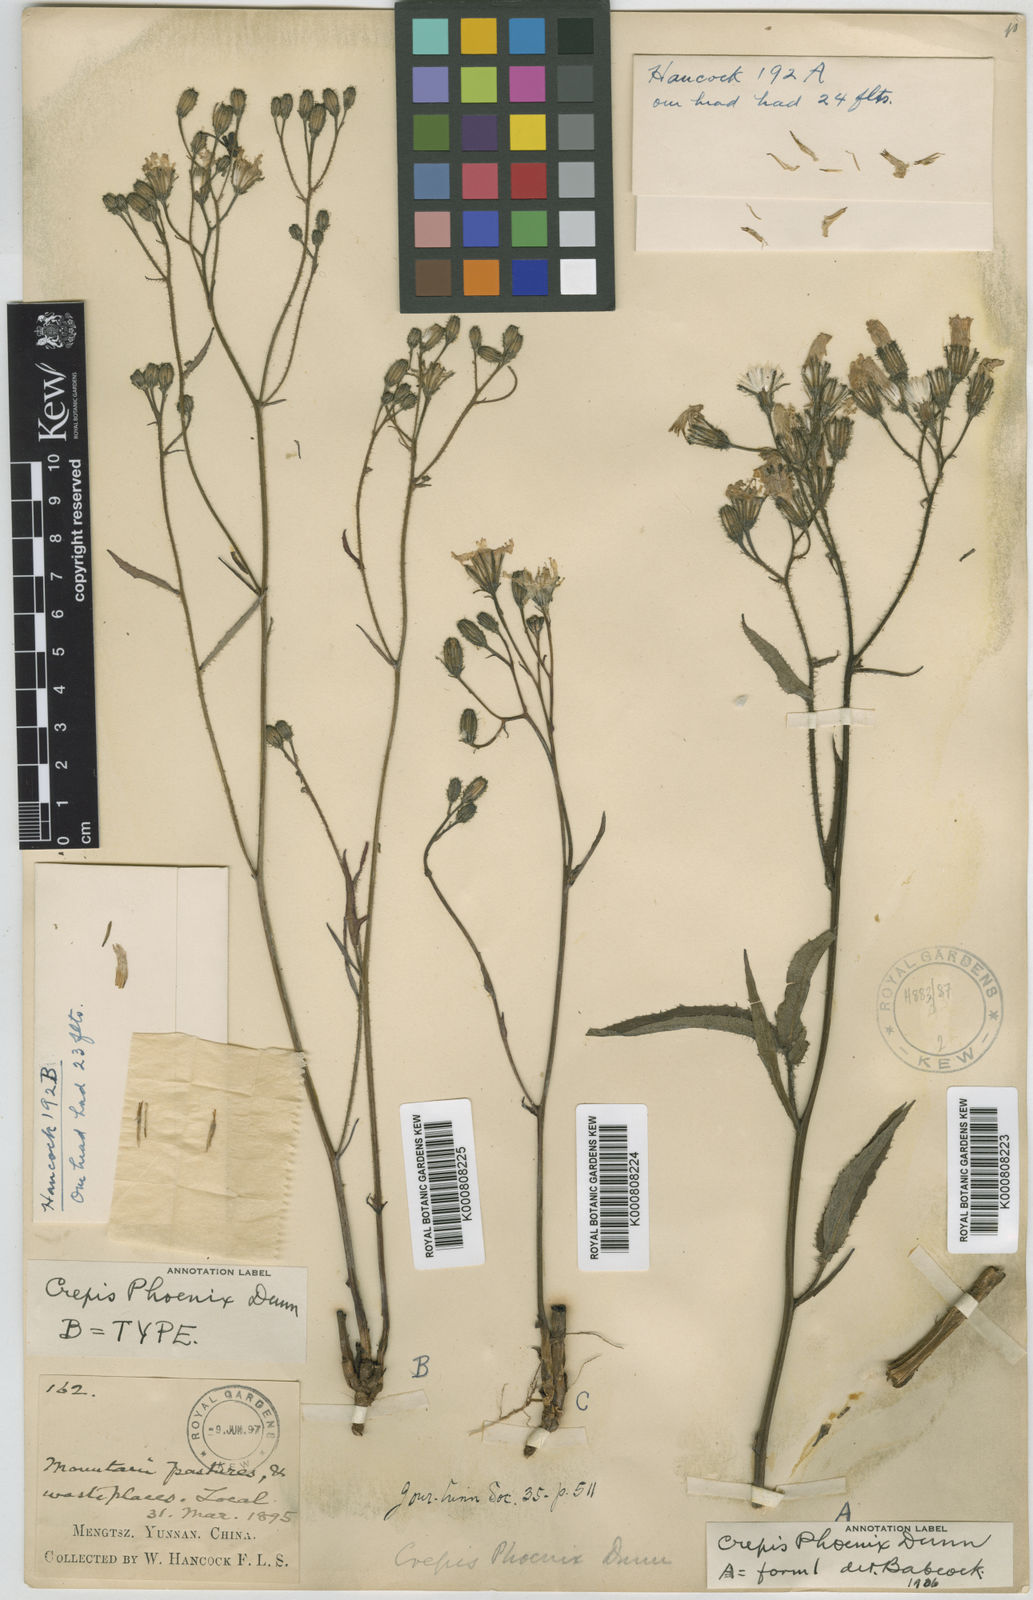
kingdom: Plantae
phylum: Tracheophyta
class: Magnoliopsida
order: Asterales
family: Asteraceae
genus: Crepis
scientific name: Crepis phoenix
